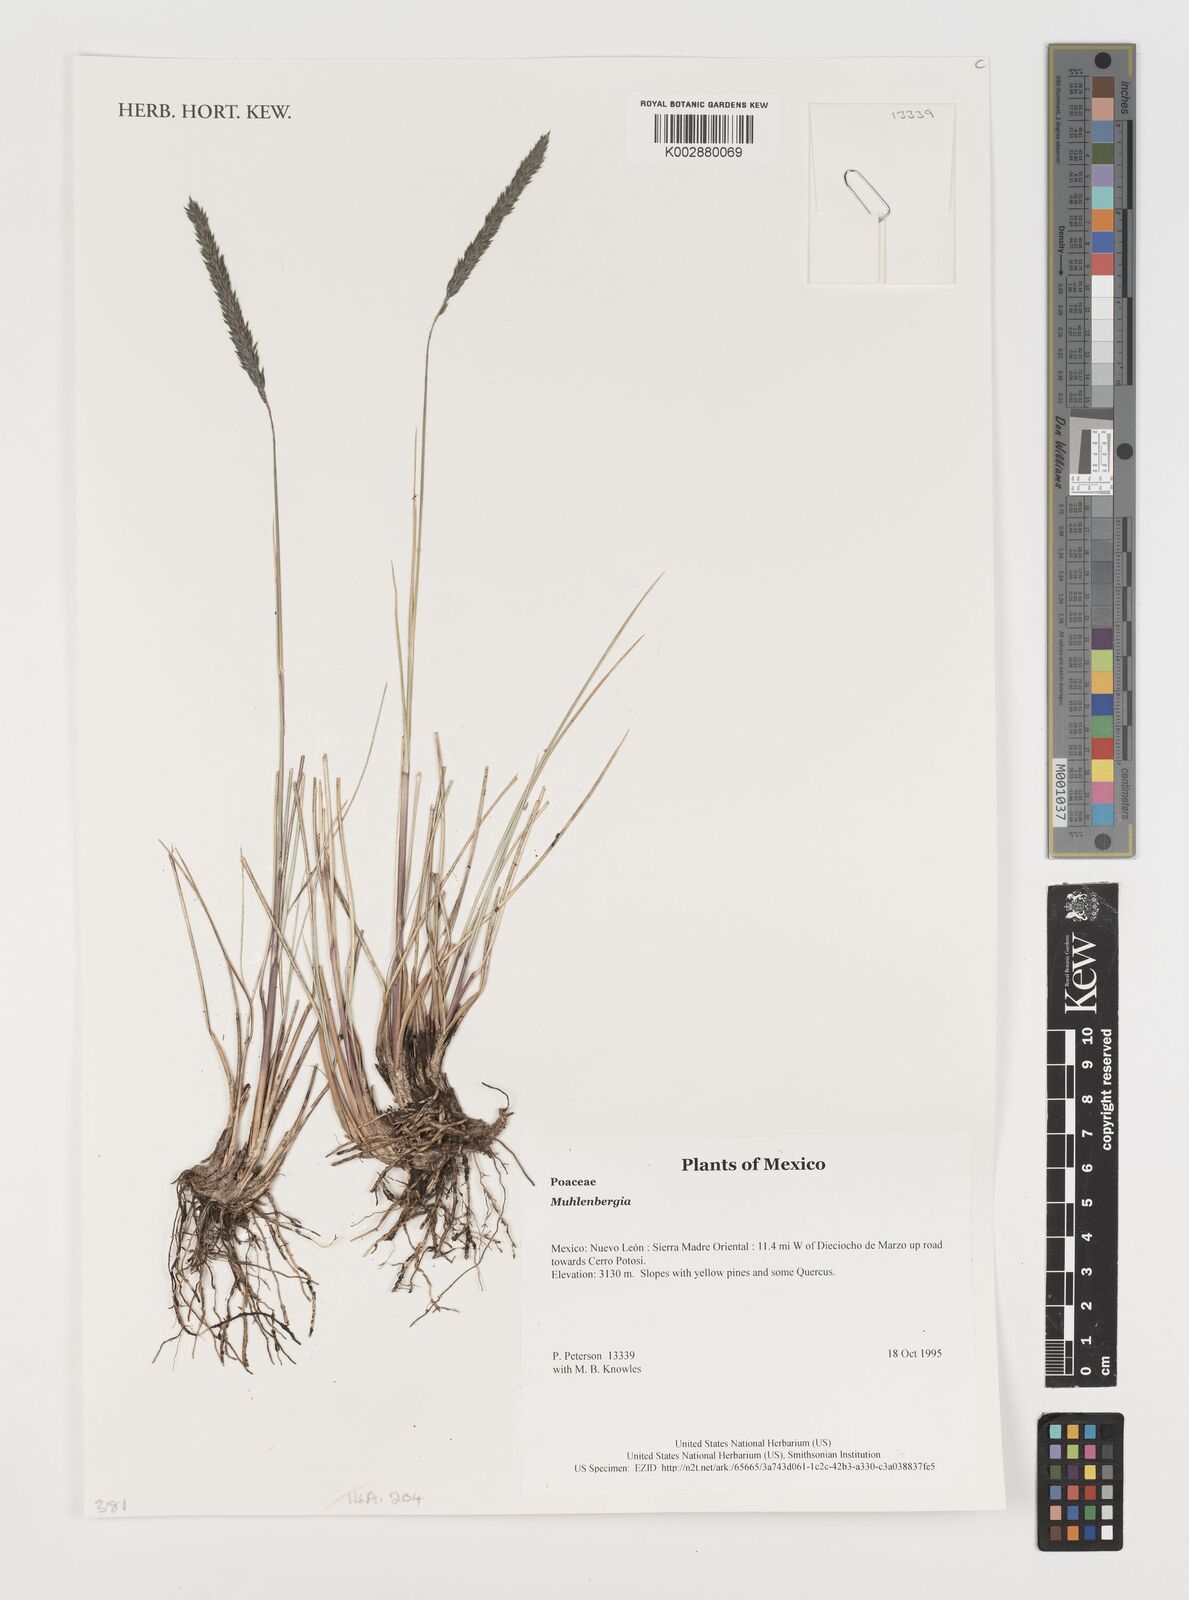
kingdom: Plantae
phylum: Tracheophyta
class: Liliopsida
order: Poales
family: Poaceae
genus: Muhlenbergia
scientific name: Muhlenbergia
